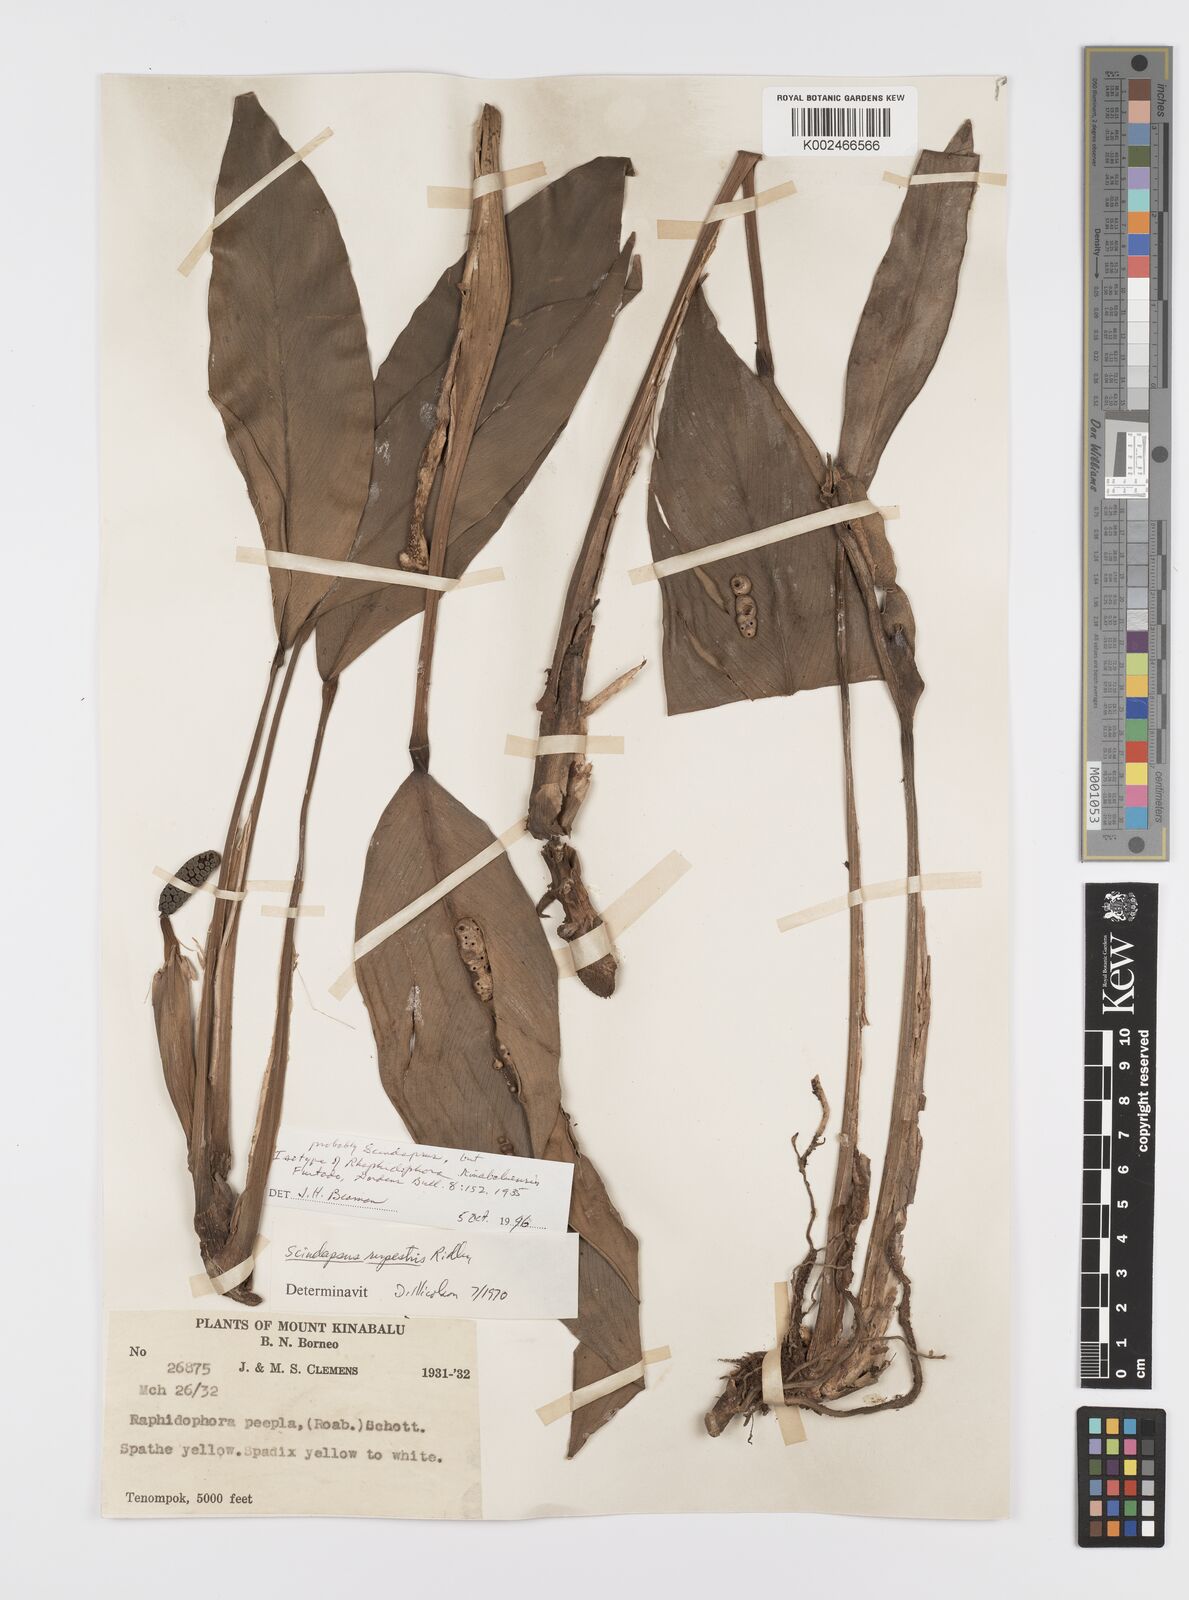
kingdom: Plantae
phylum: Tracheophyta
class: Liliopsida
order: Alismatales
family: Araceae
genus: Scindapsus
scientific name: Scindapsus coriaceus
